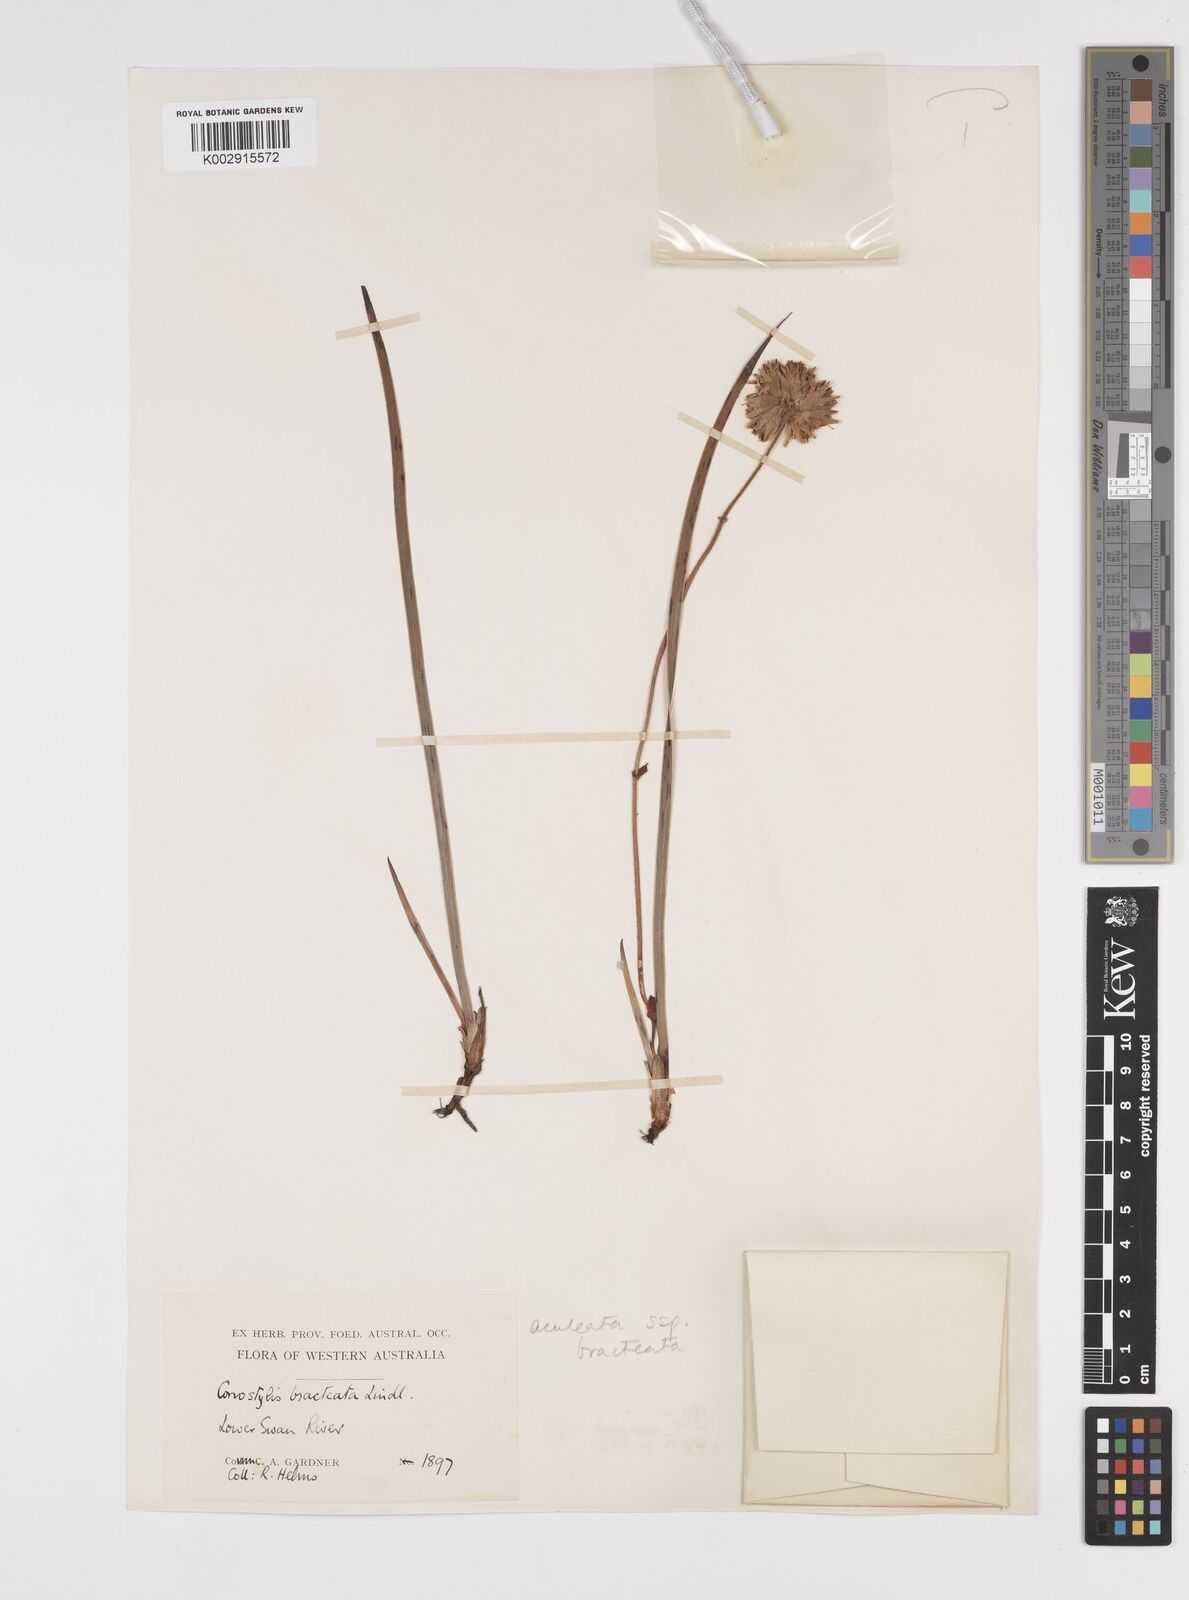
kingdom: Plantae
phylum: Tracheophyta
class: Liliopsida
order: Commelinales
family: Haemodoraceae
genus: Conostylis
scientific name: Conostylis bracteata
